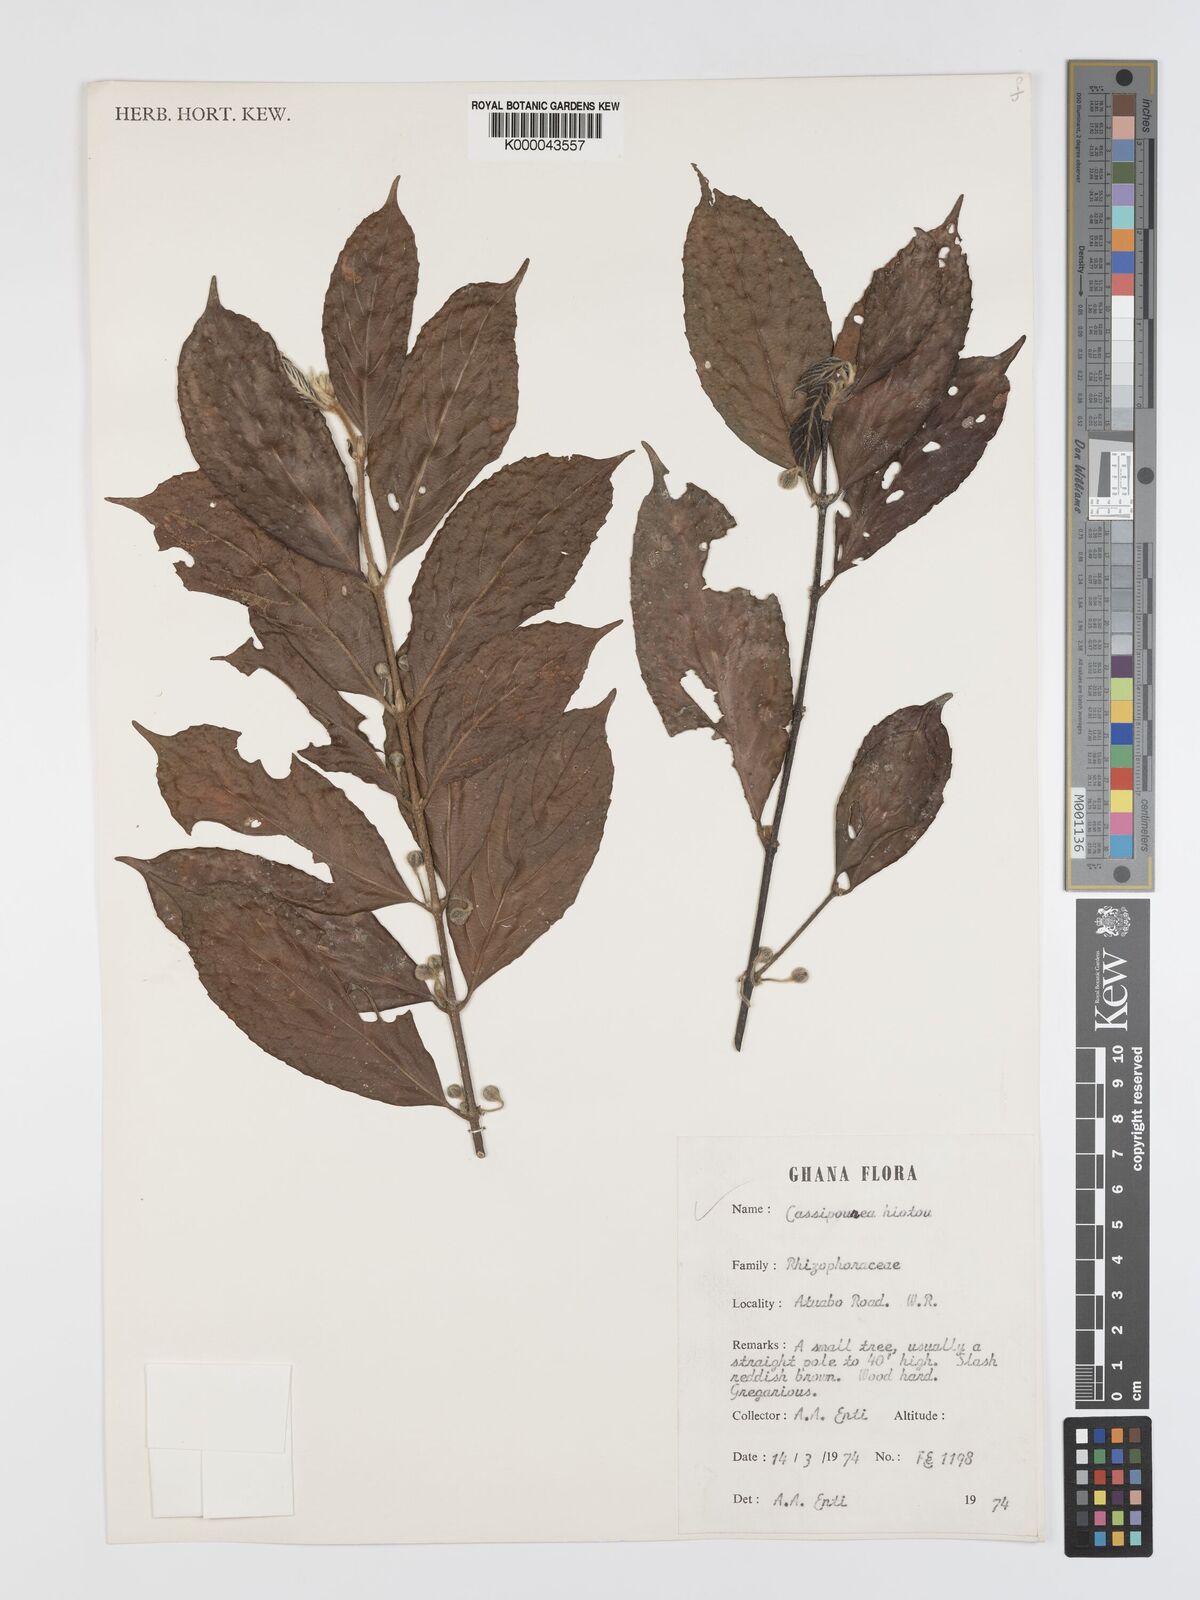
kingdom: Plantae
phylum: Tracheophyta
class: Magnoliopsida
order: Malpighiales
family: Rhizophoraceae
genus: Cassipourea
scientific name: Cassipourea
